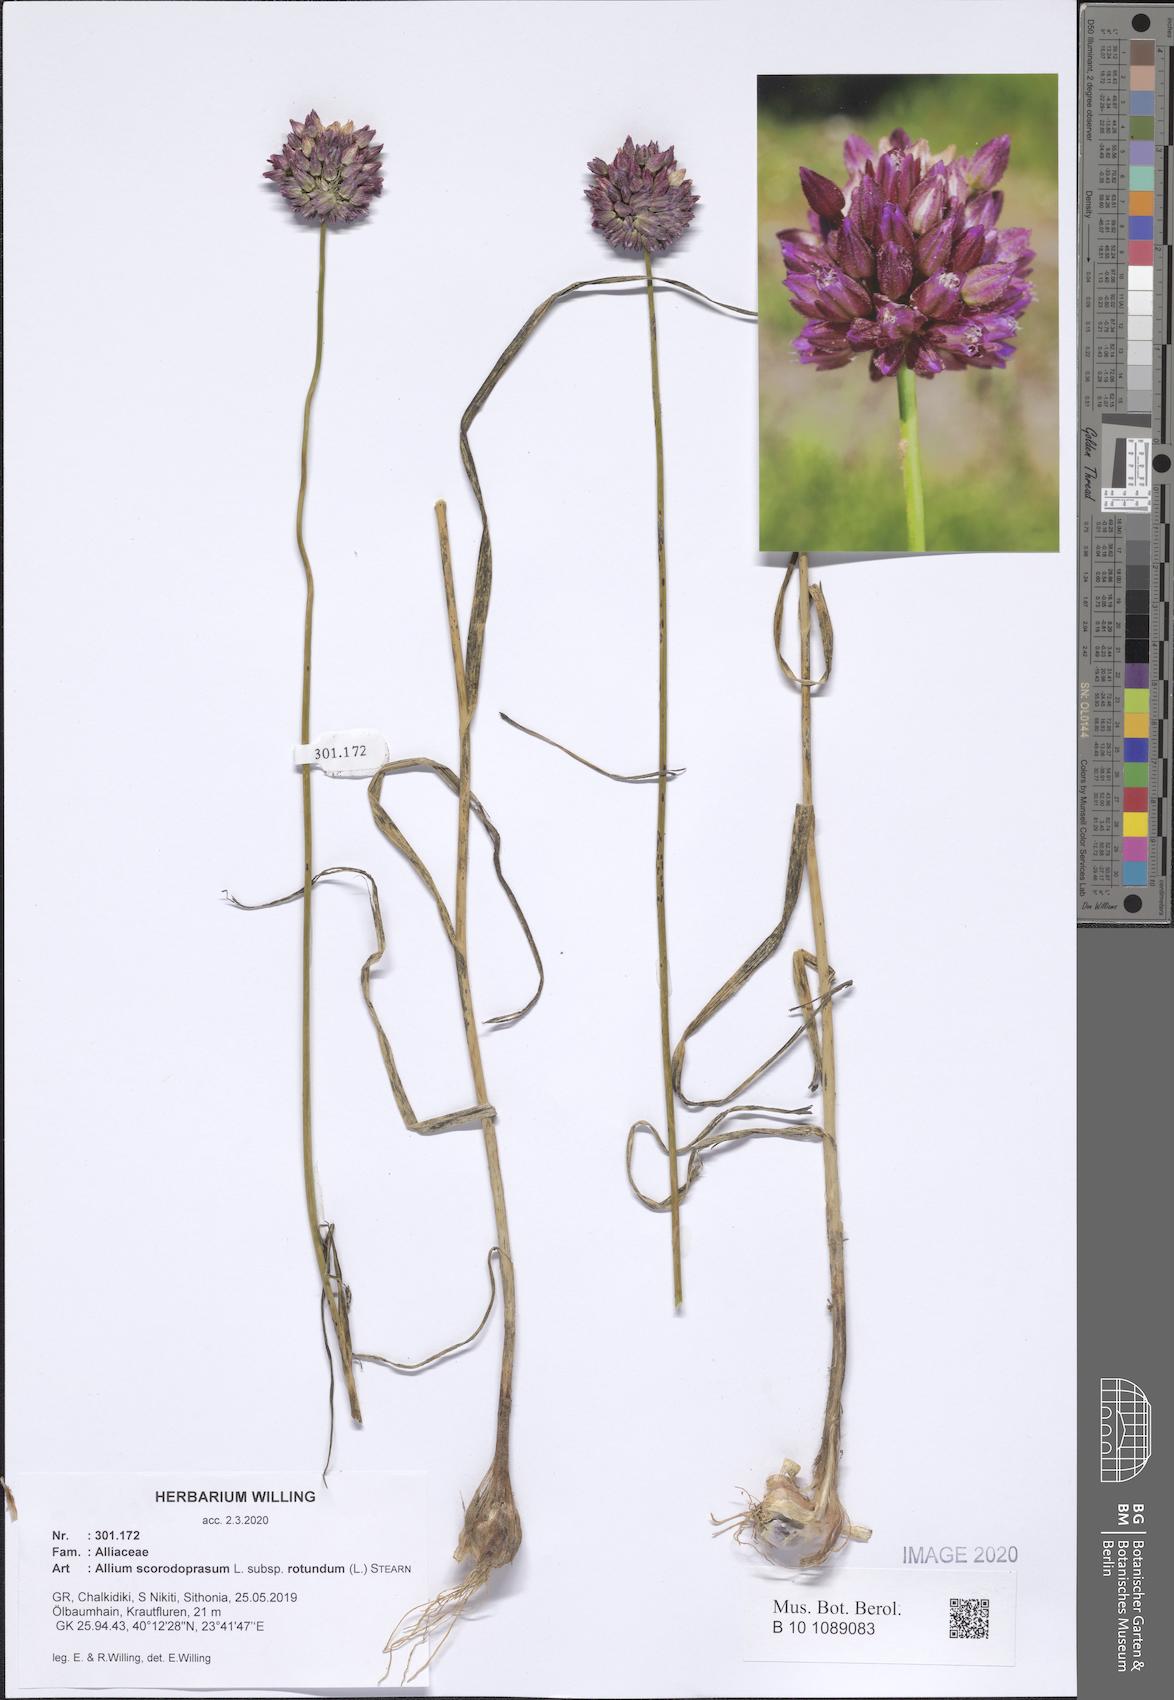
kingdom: Plantae
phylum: Tracheophyta
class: Liliopsida
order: Asparagales
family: Amaryllidaceae
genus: Allium
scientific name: Allium rotundum
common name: Sand leek
